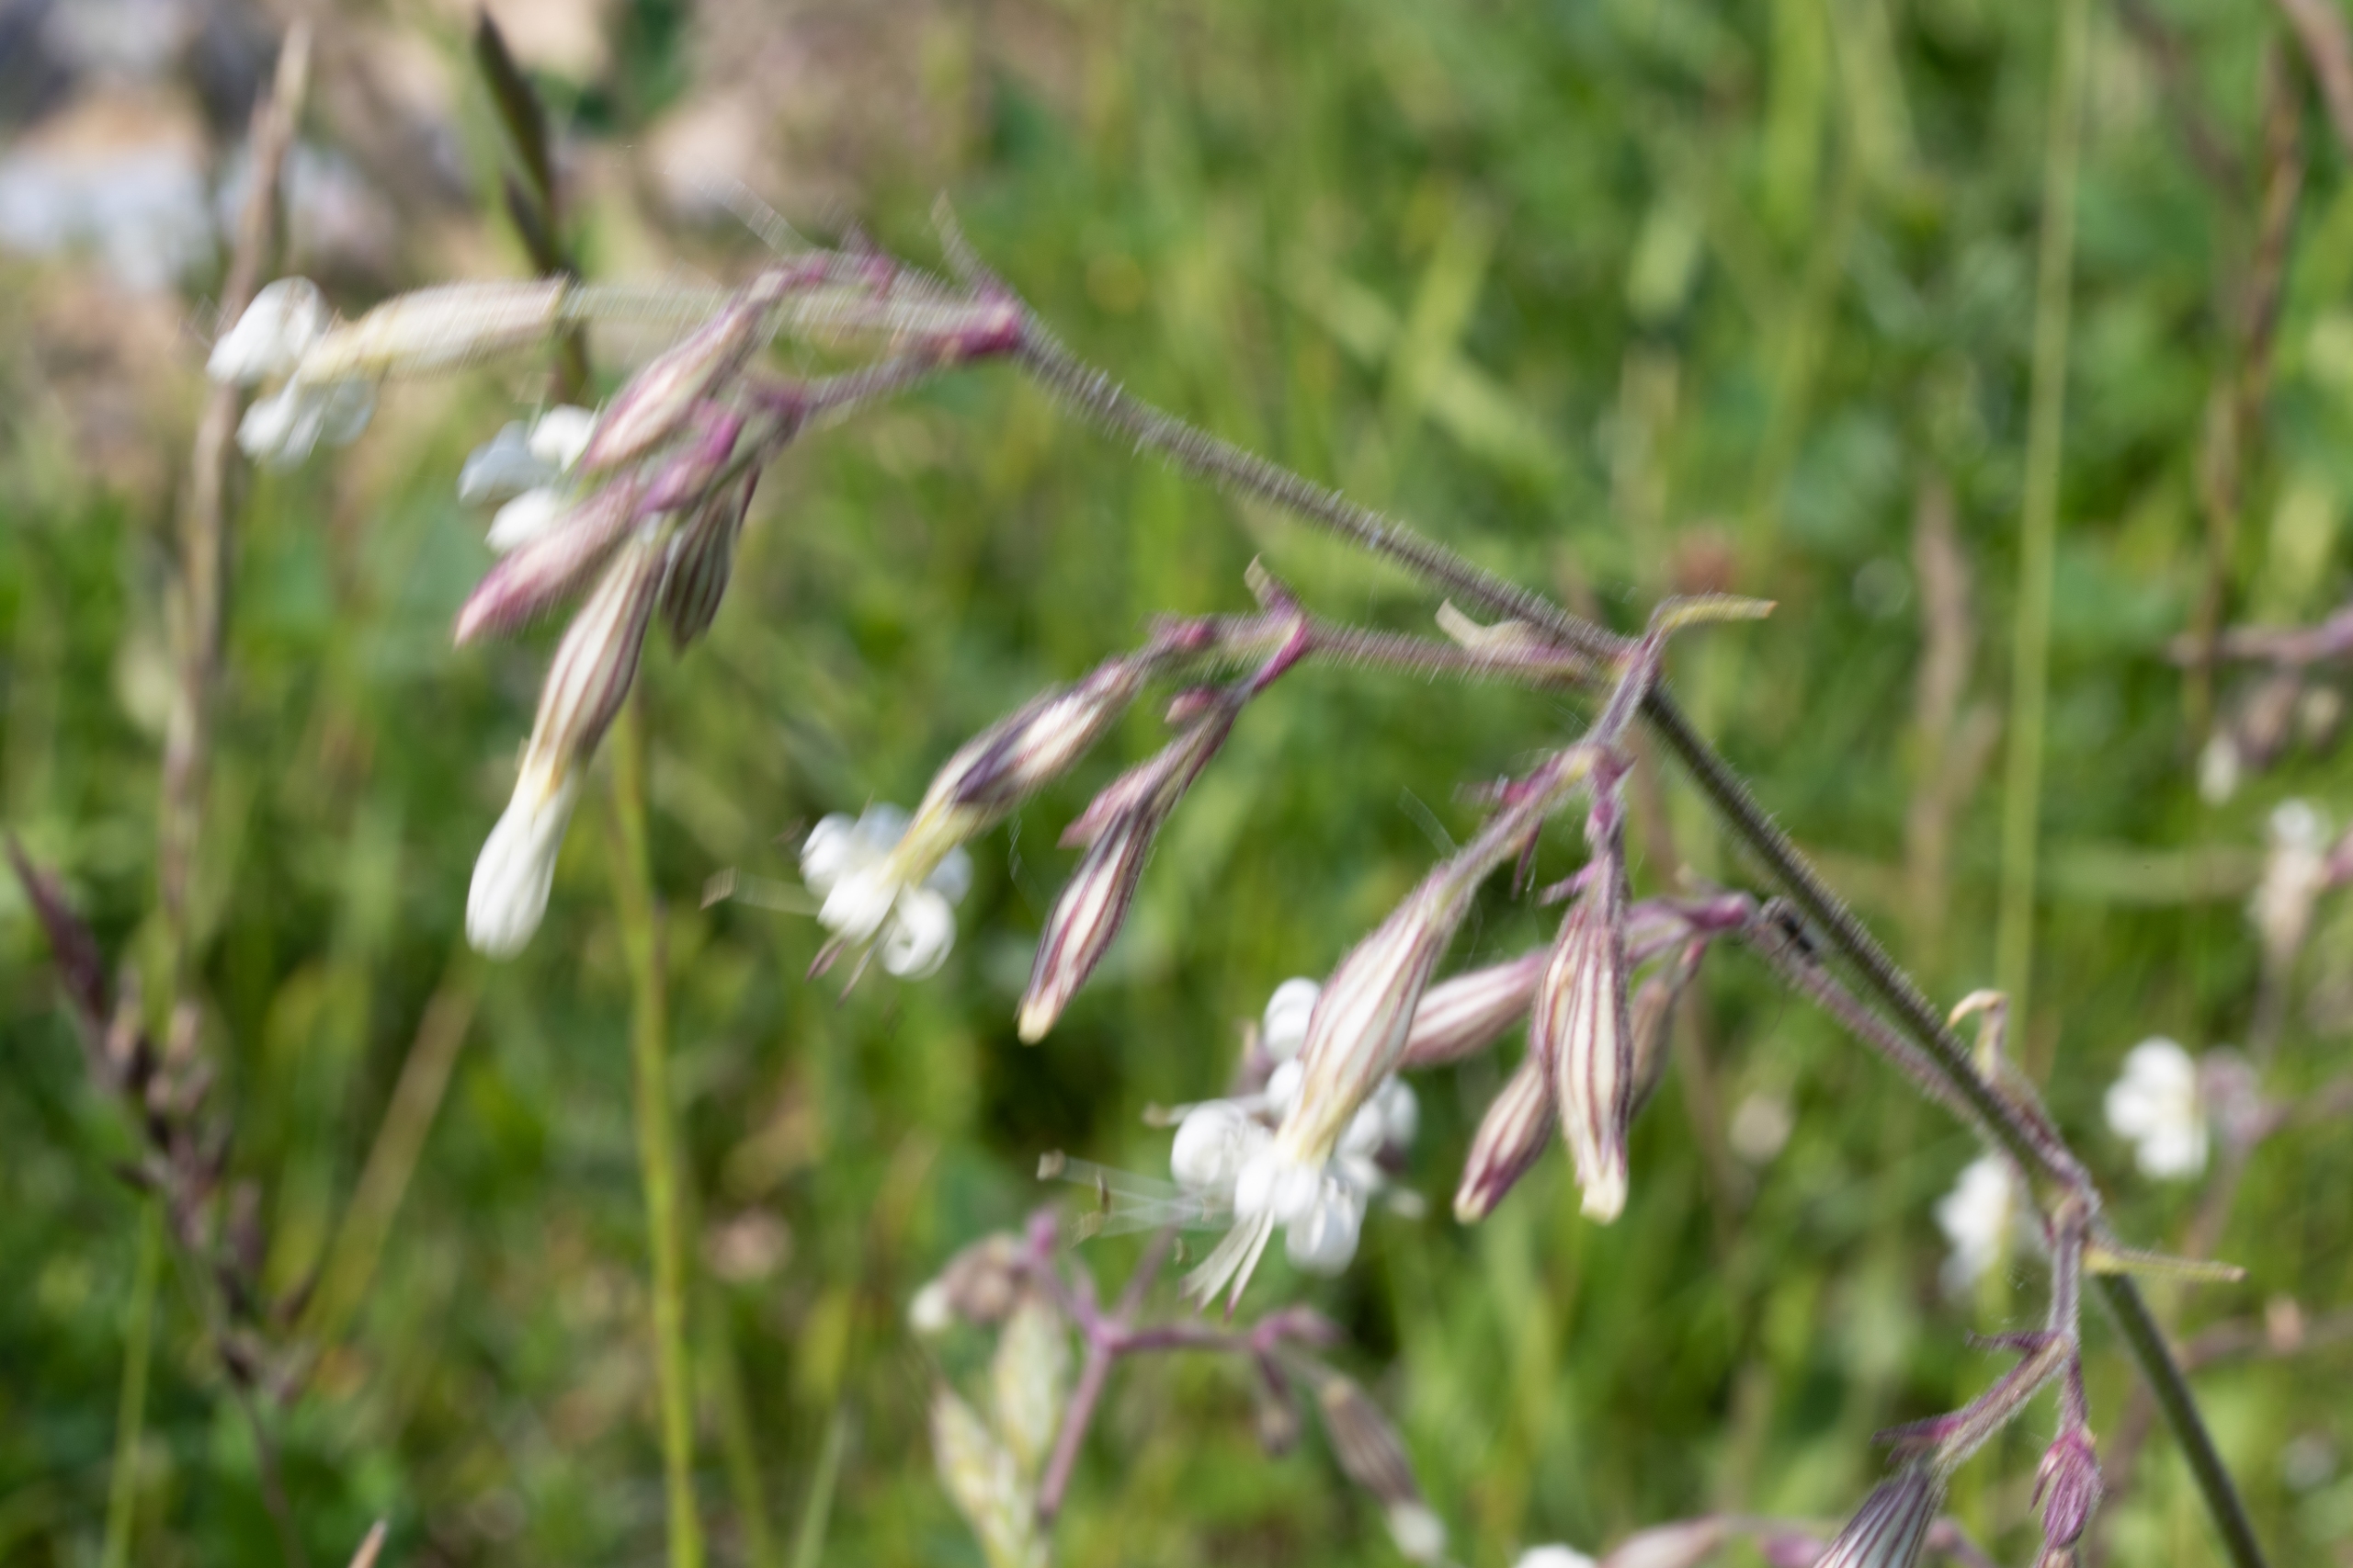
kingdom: Plantae
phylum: Tracheophyta
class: Magnoliopsida
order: Caryophyllales
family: Caryophyllaceae
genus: Silene
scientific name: Silene nutans
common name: Nikkende limurt
